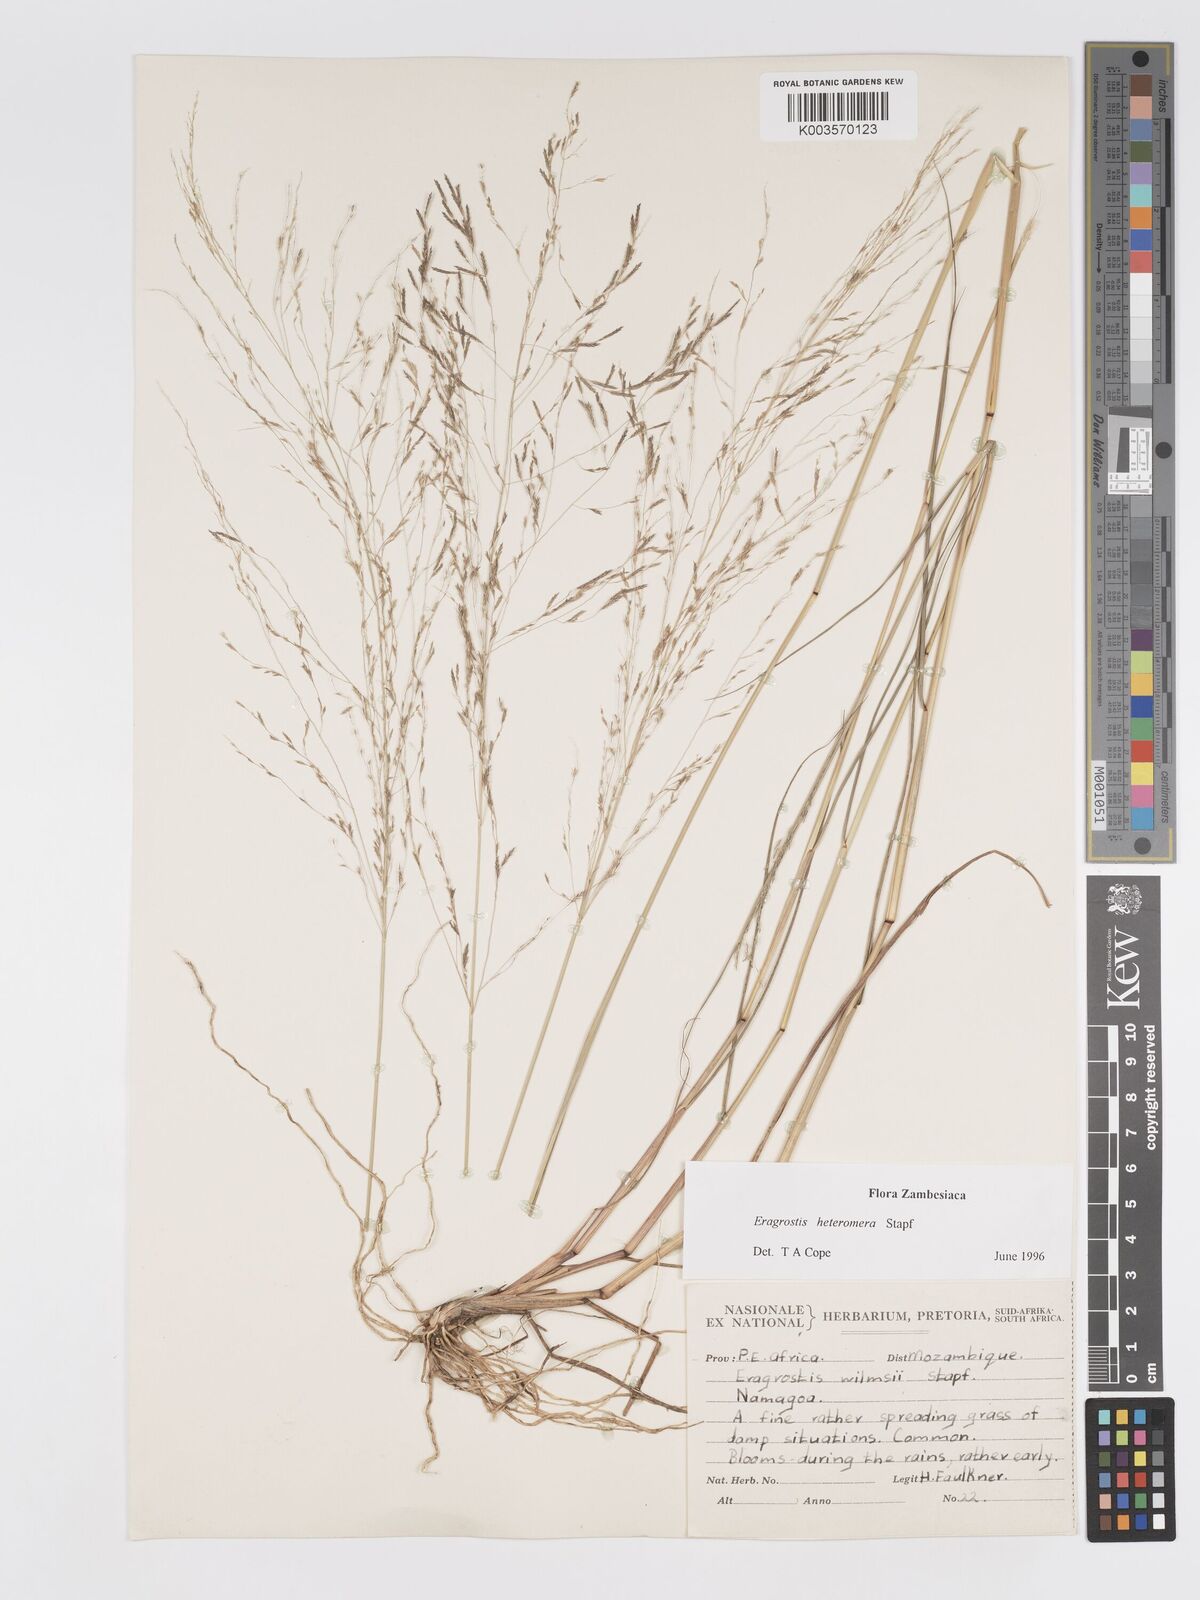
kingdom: Plantae
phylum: Tracheophyta
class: Liliopsida
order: Poales
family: Poaceae
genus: Eragrostis
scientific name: Eragrostis heteromera
